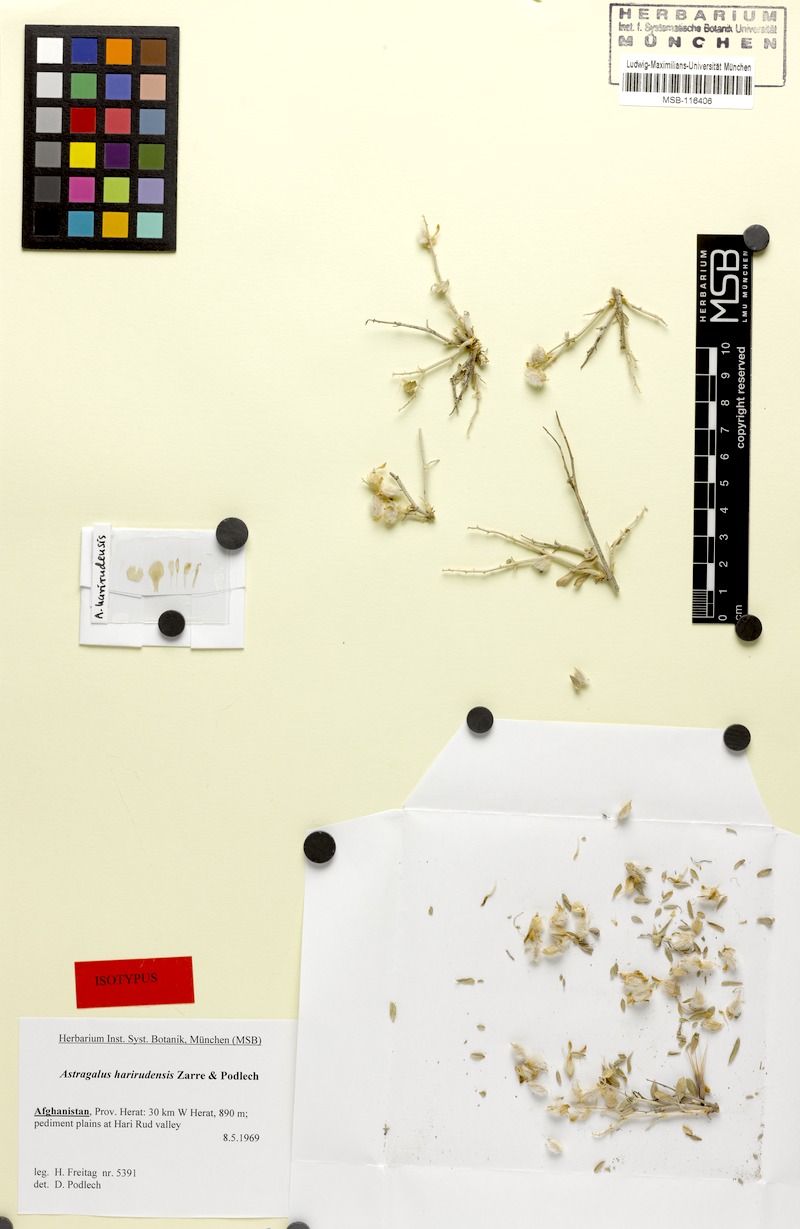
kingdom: Plantae
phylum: Tracheophyta
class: Magnoliopsida
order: Fabales
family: Fabaceae
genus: Astragalus
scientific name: Astragalus harirudensis
